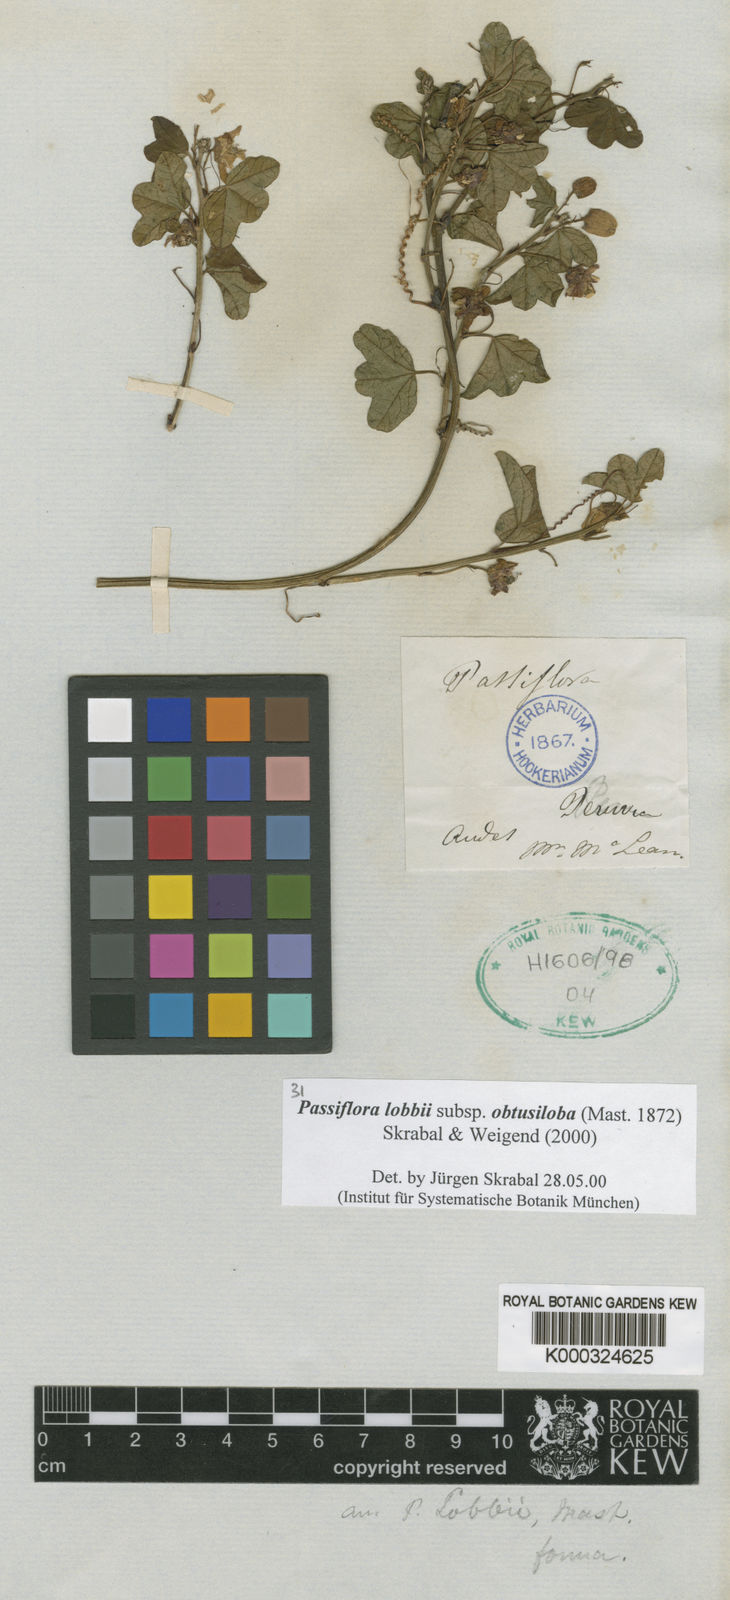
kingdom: Plantae
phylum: Tracheophyta
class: Magnoliopsida
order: Malpighiales
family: Passifloraceae
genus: Passiflora
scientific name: Passiflora lobbii
